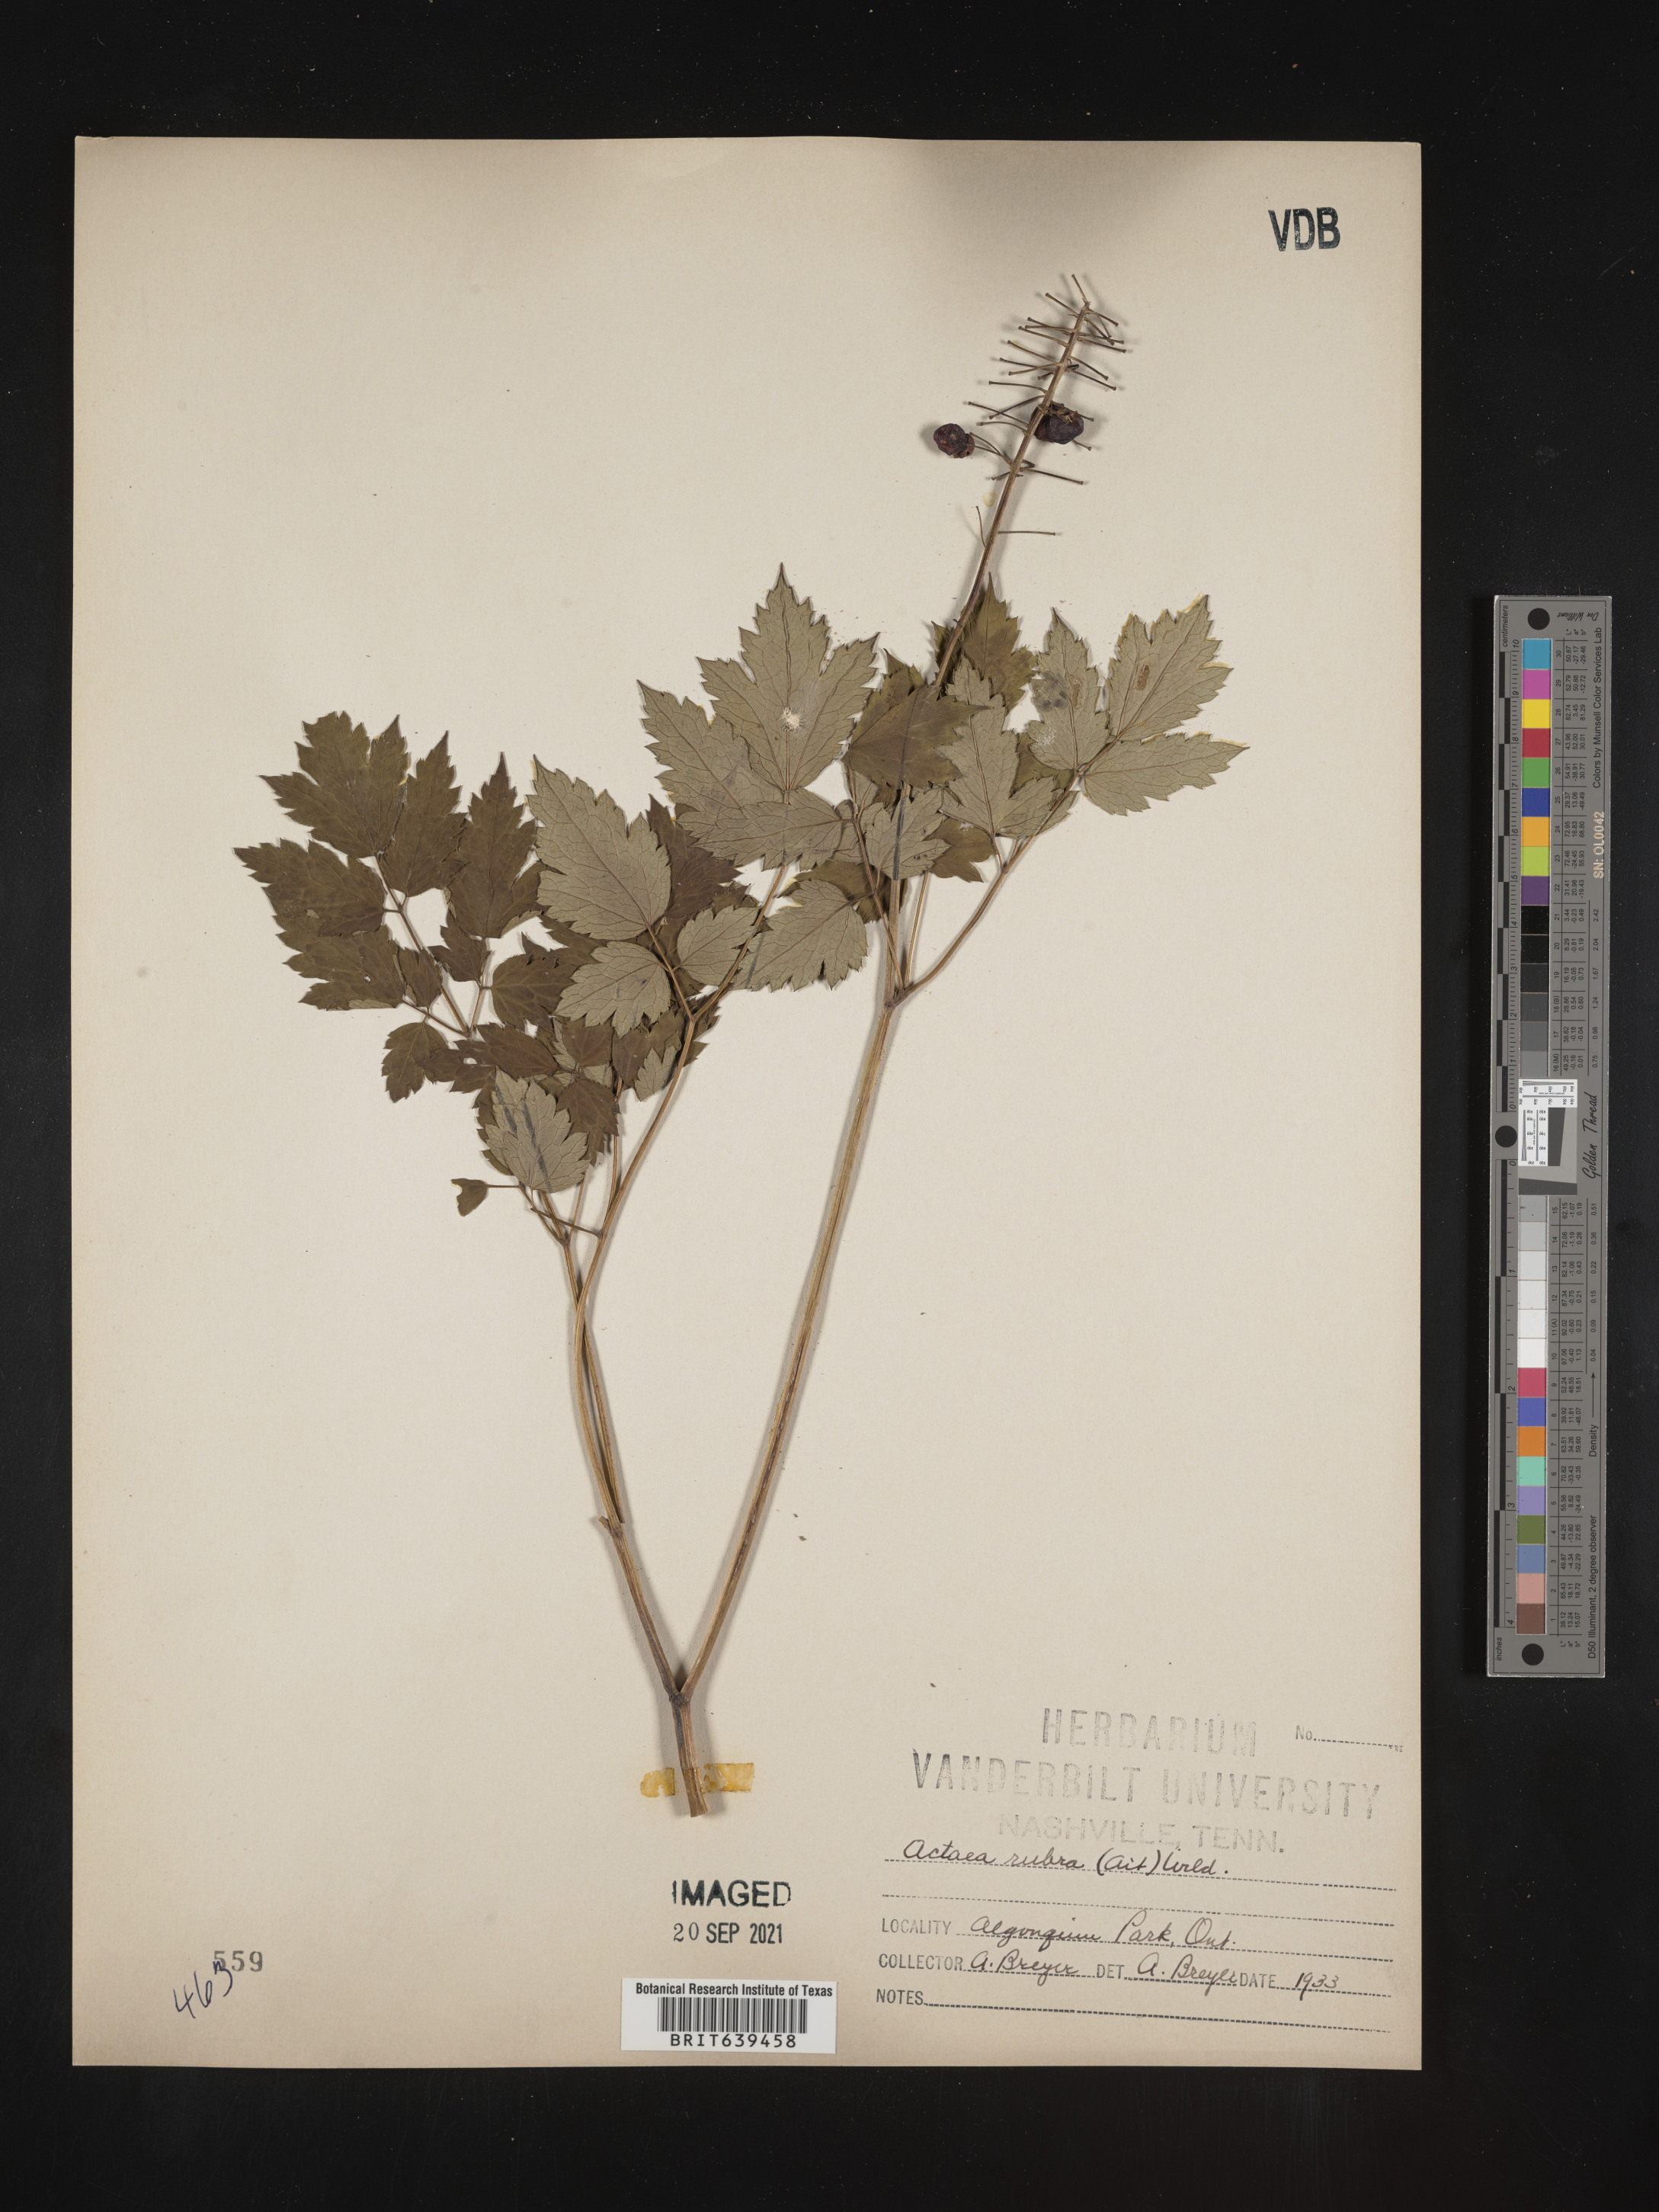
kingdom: Plantae
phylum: Tracheophyta
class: Magnoliopsida
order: Ranunculales
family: Ranunculaceae
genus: Actaea
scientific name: Actaea
